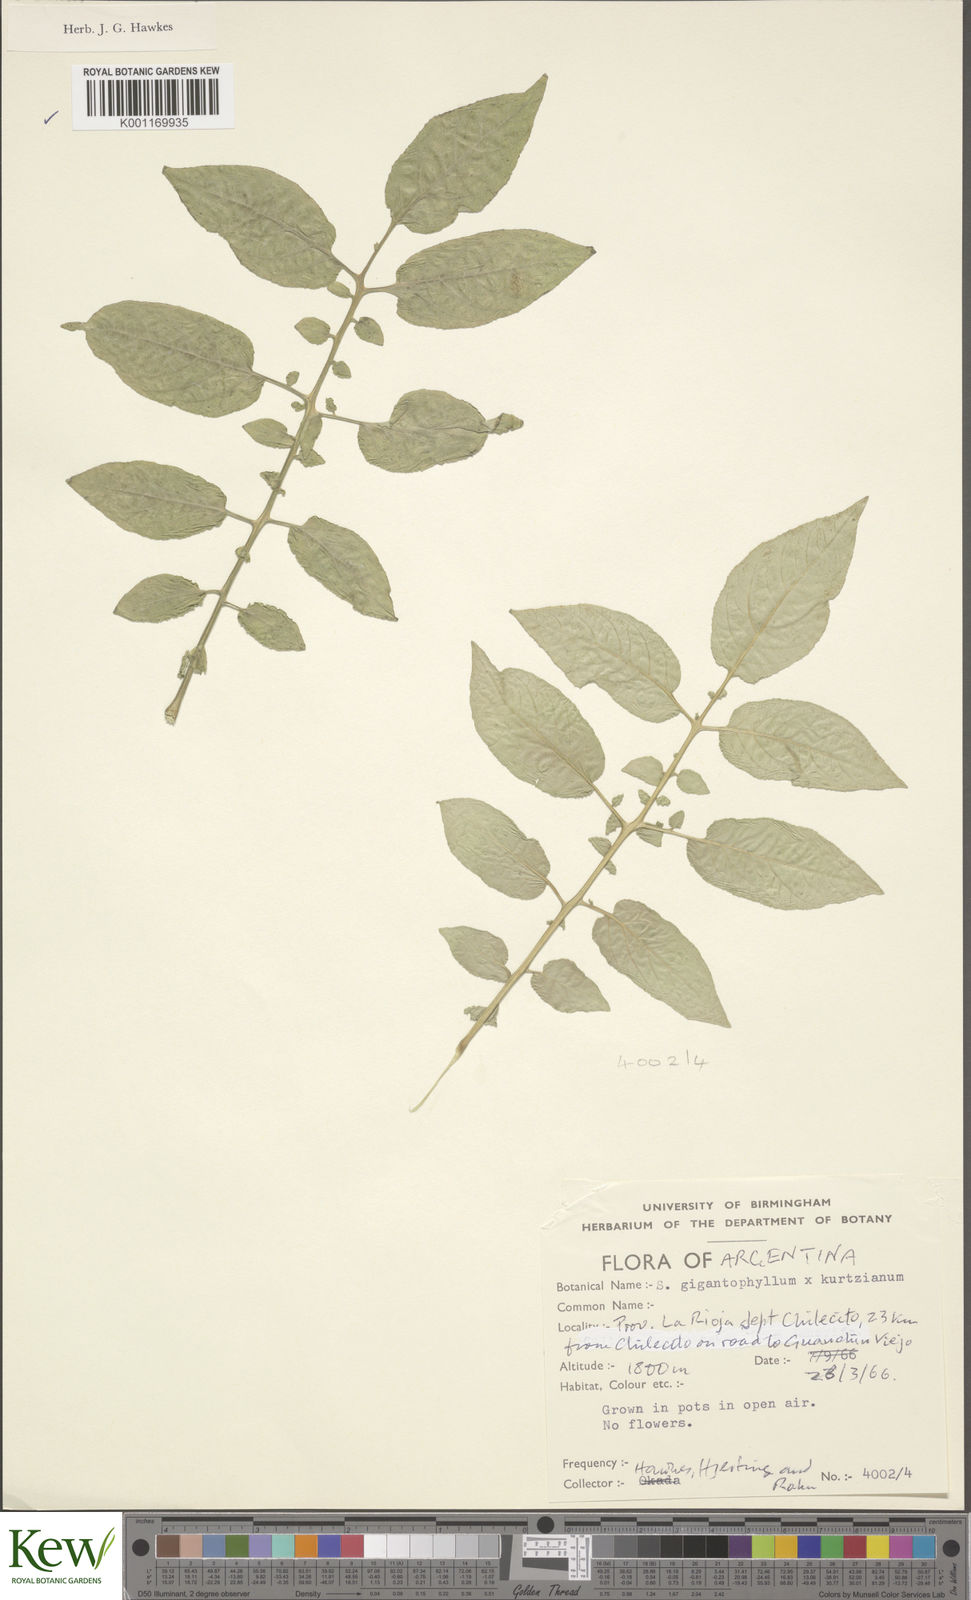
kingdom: Plantae
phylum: Tracheophyta
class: Magnoliopsida
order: Solanales
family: Solanaceae
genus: Solanum
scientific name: Solanum rechei
